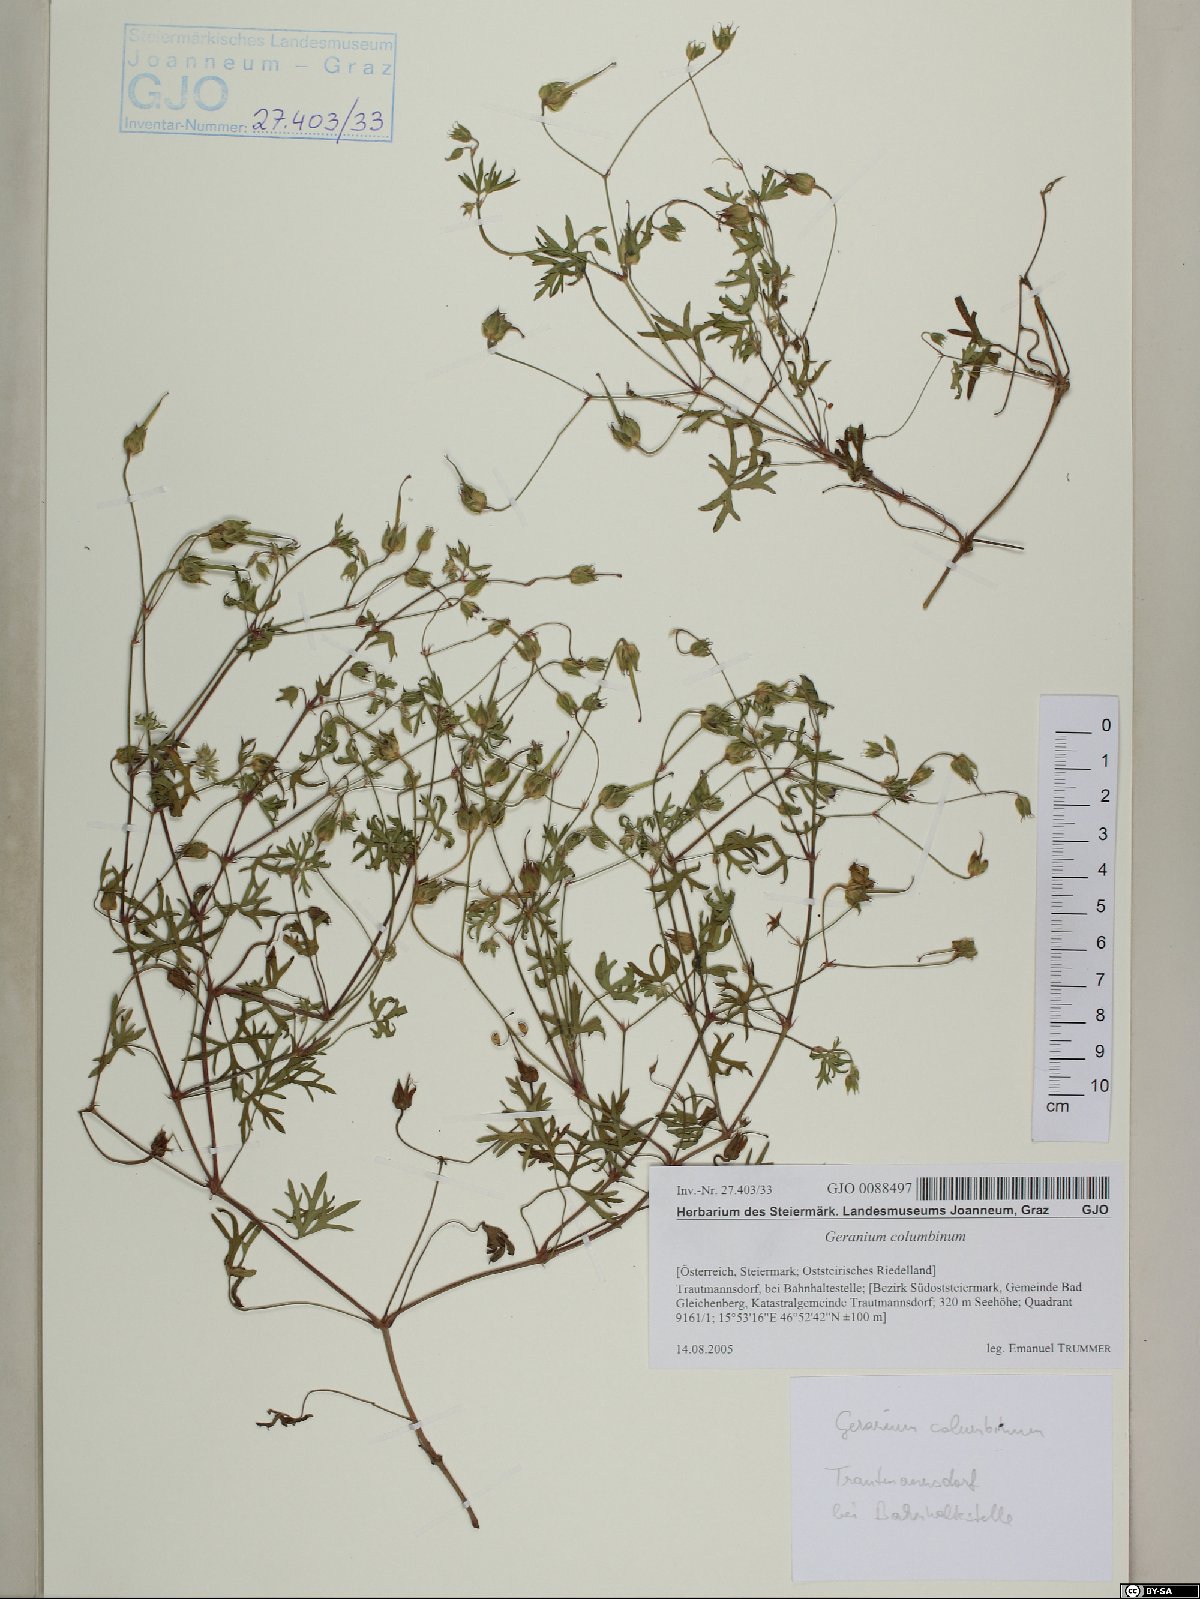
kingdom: Plantae
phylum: Tracheophyta
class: Magnoliopsida
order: Geraniales
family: Geraniaceae
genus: Geranium
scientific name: Geranium columbinum
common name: Long-stalked crane's-bill
